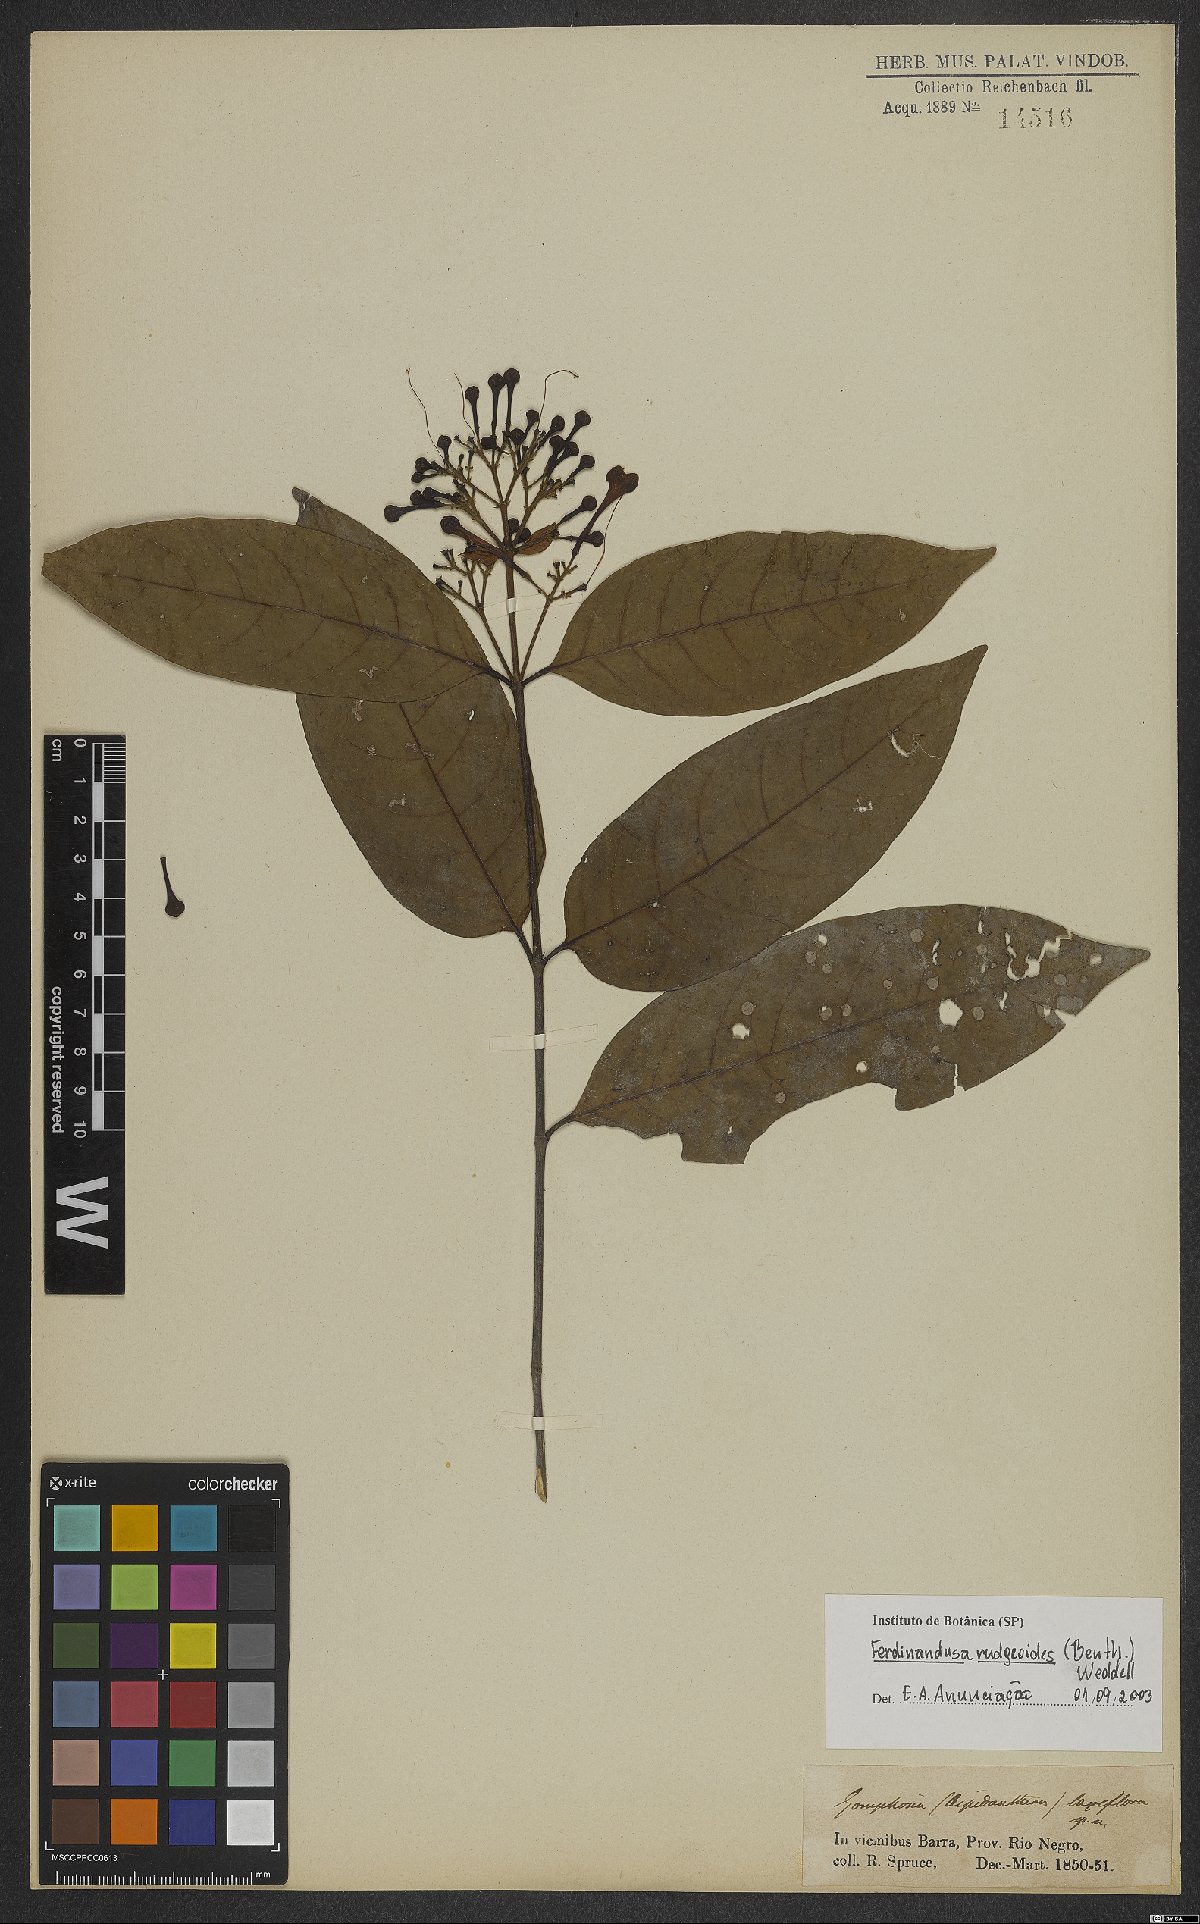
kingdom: Plantae
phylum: Tracheophyta
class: Magnoliopsida
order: Gentianales
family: Rubiaceae
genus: Ferdinandusa
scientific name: Ferdinandusa rudgeoides
